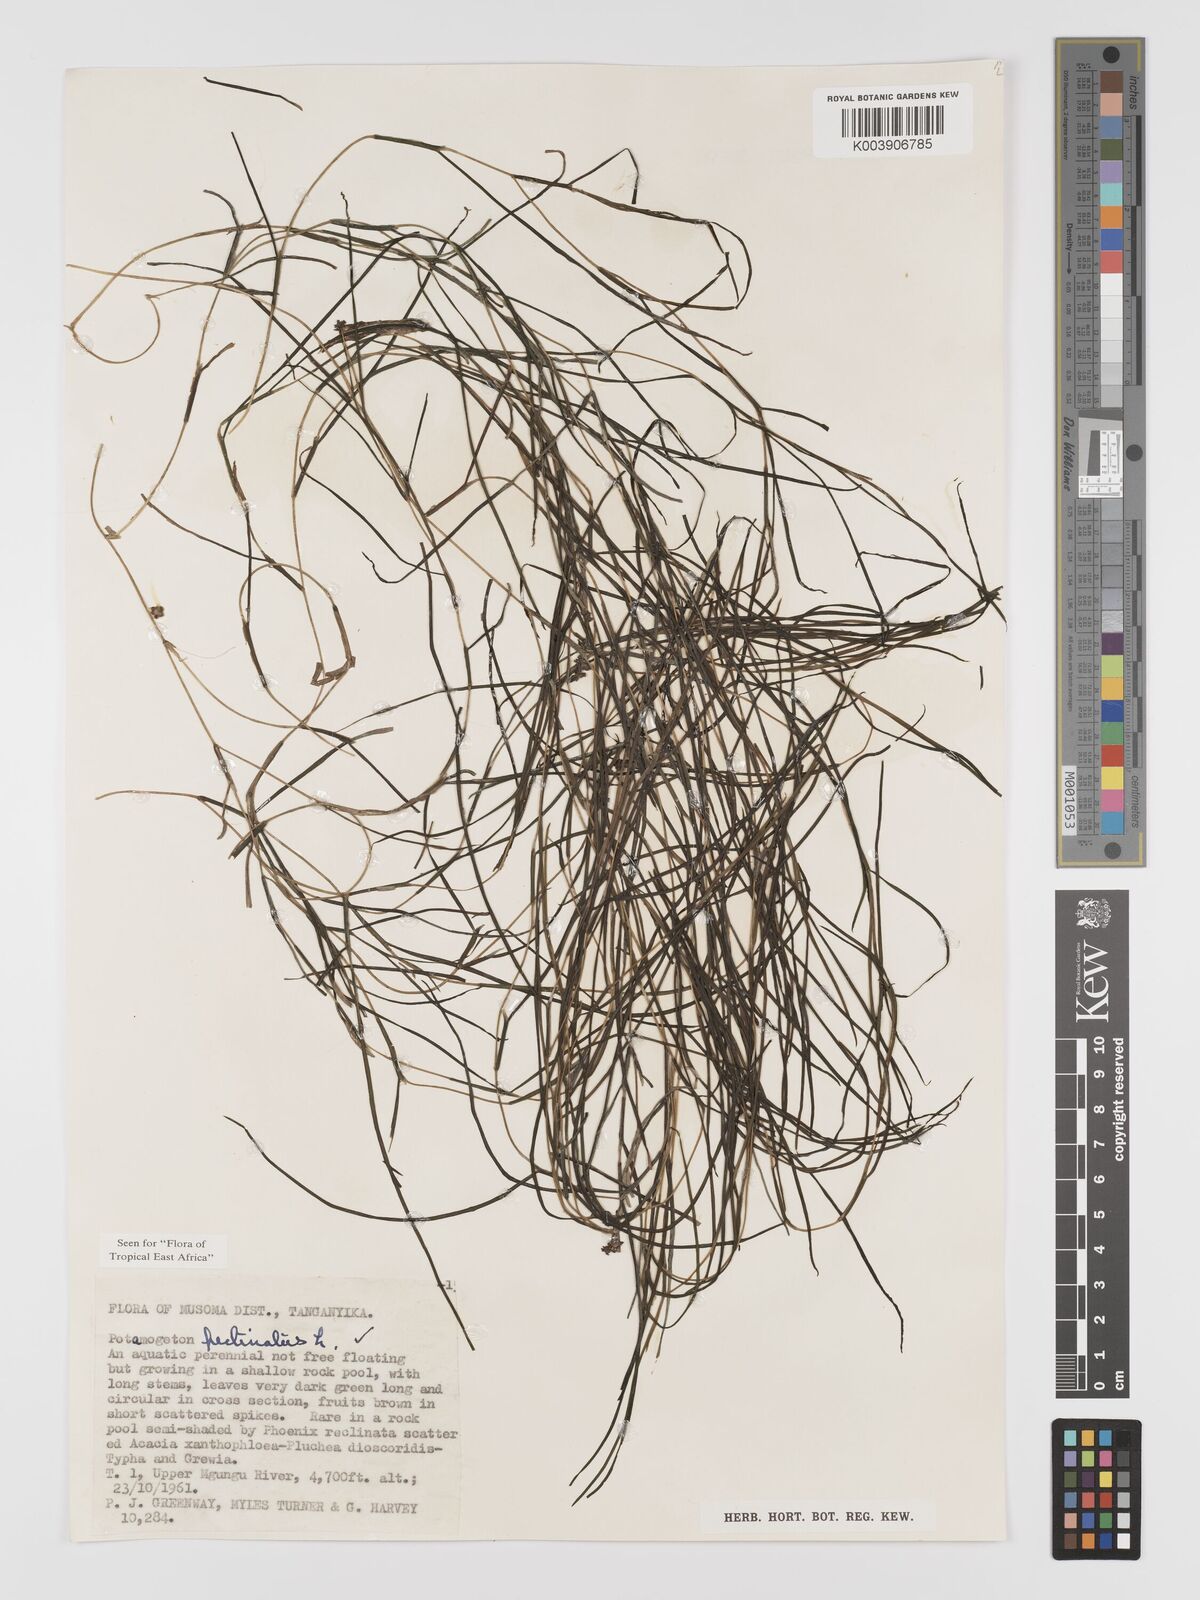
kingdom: Plantae
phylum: Tracheophyta
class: Liliopsida
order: Alismatales
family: Potamogetonaceae
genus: Stuckenia
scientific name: Stuckenia pectinata
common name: Sago pondweed
